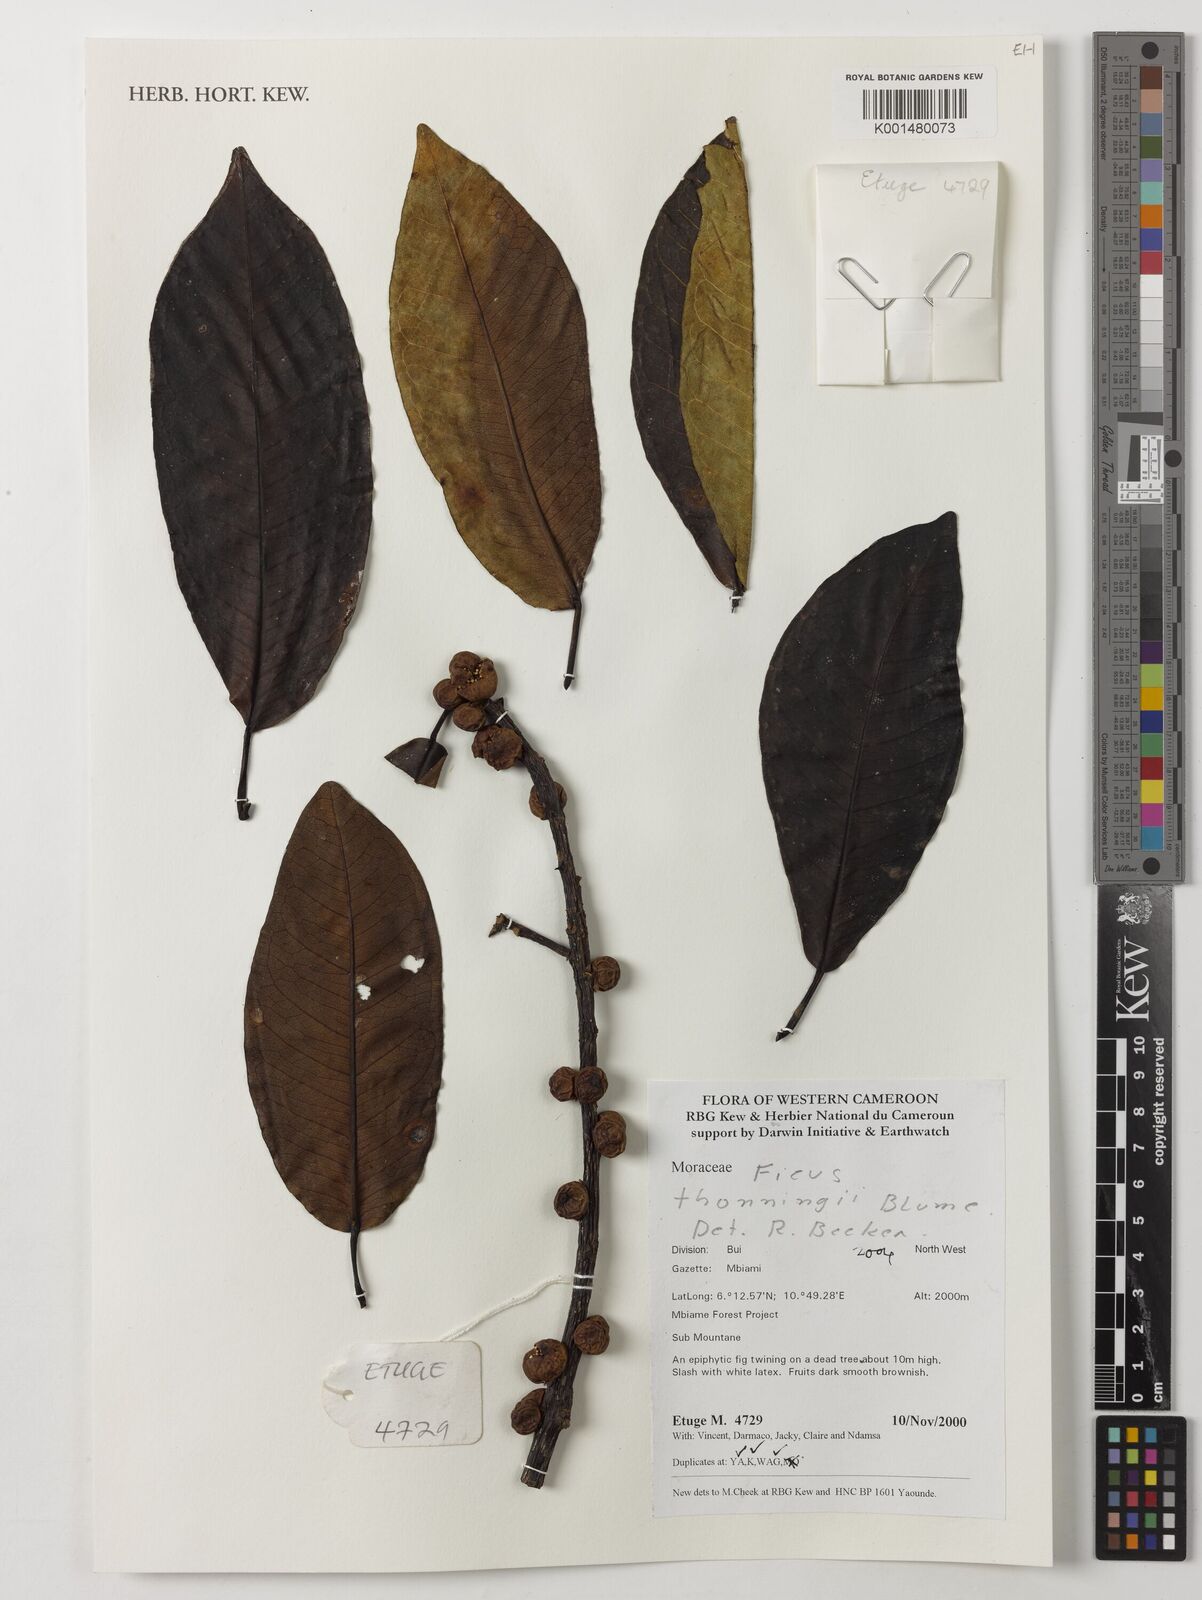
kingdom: Plantae
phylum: Tracheophyta
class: Magnoliopsida
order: Rosales
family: Moraceae
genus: Ficus
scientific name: Ficus thonningii
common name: Fig
